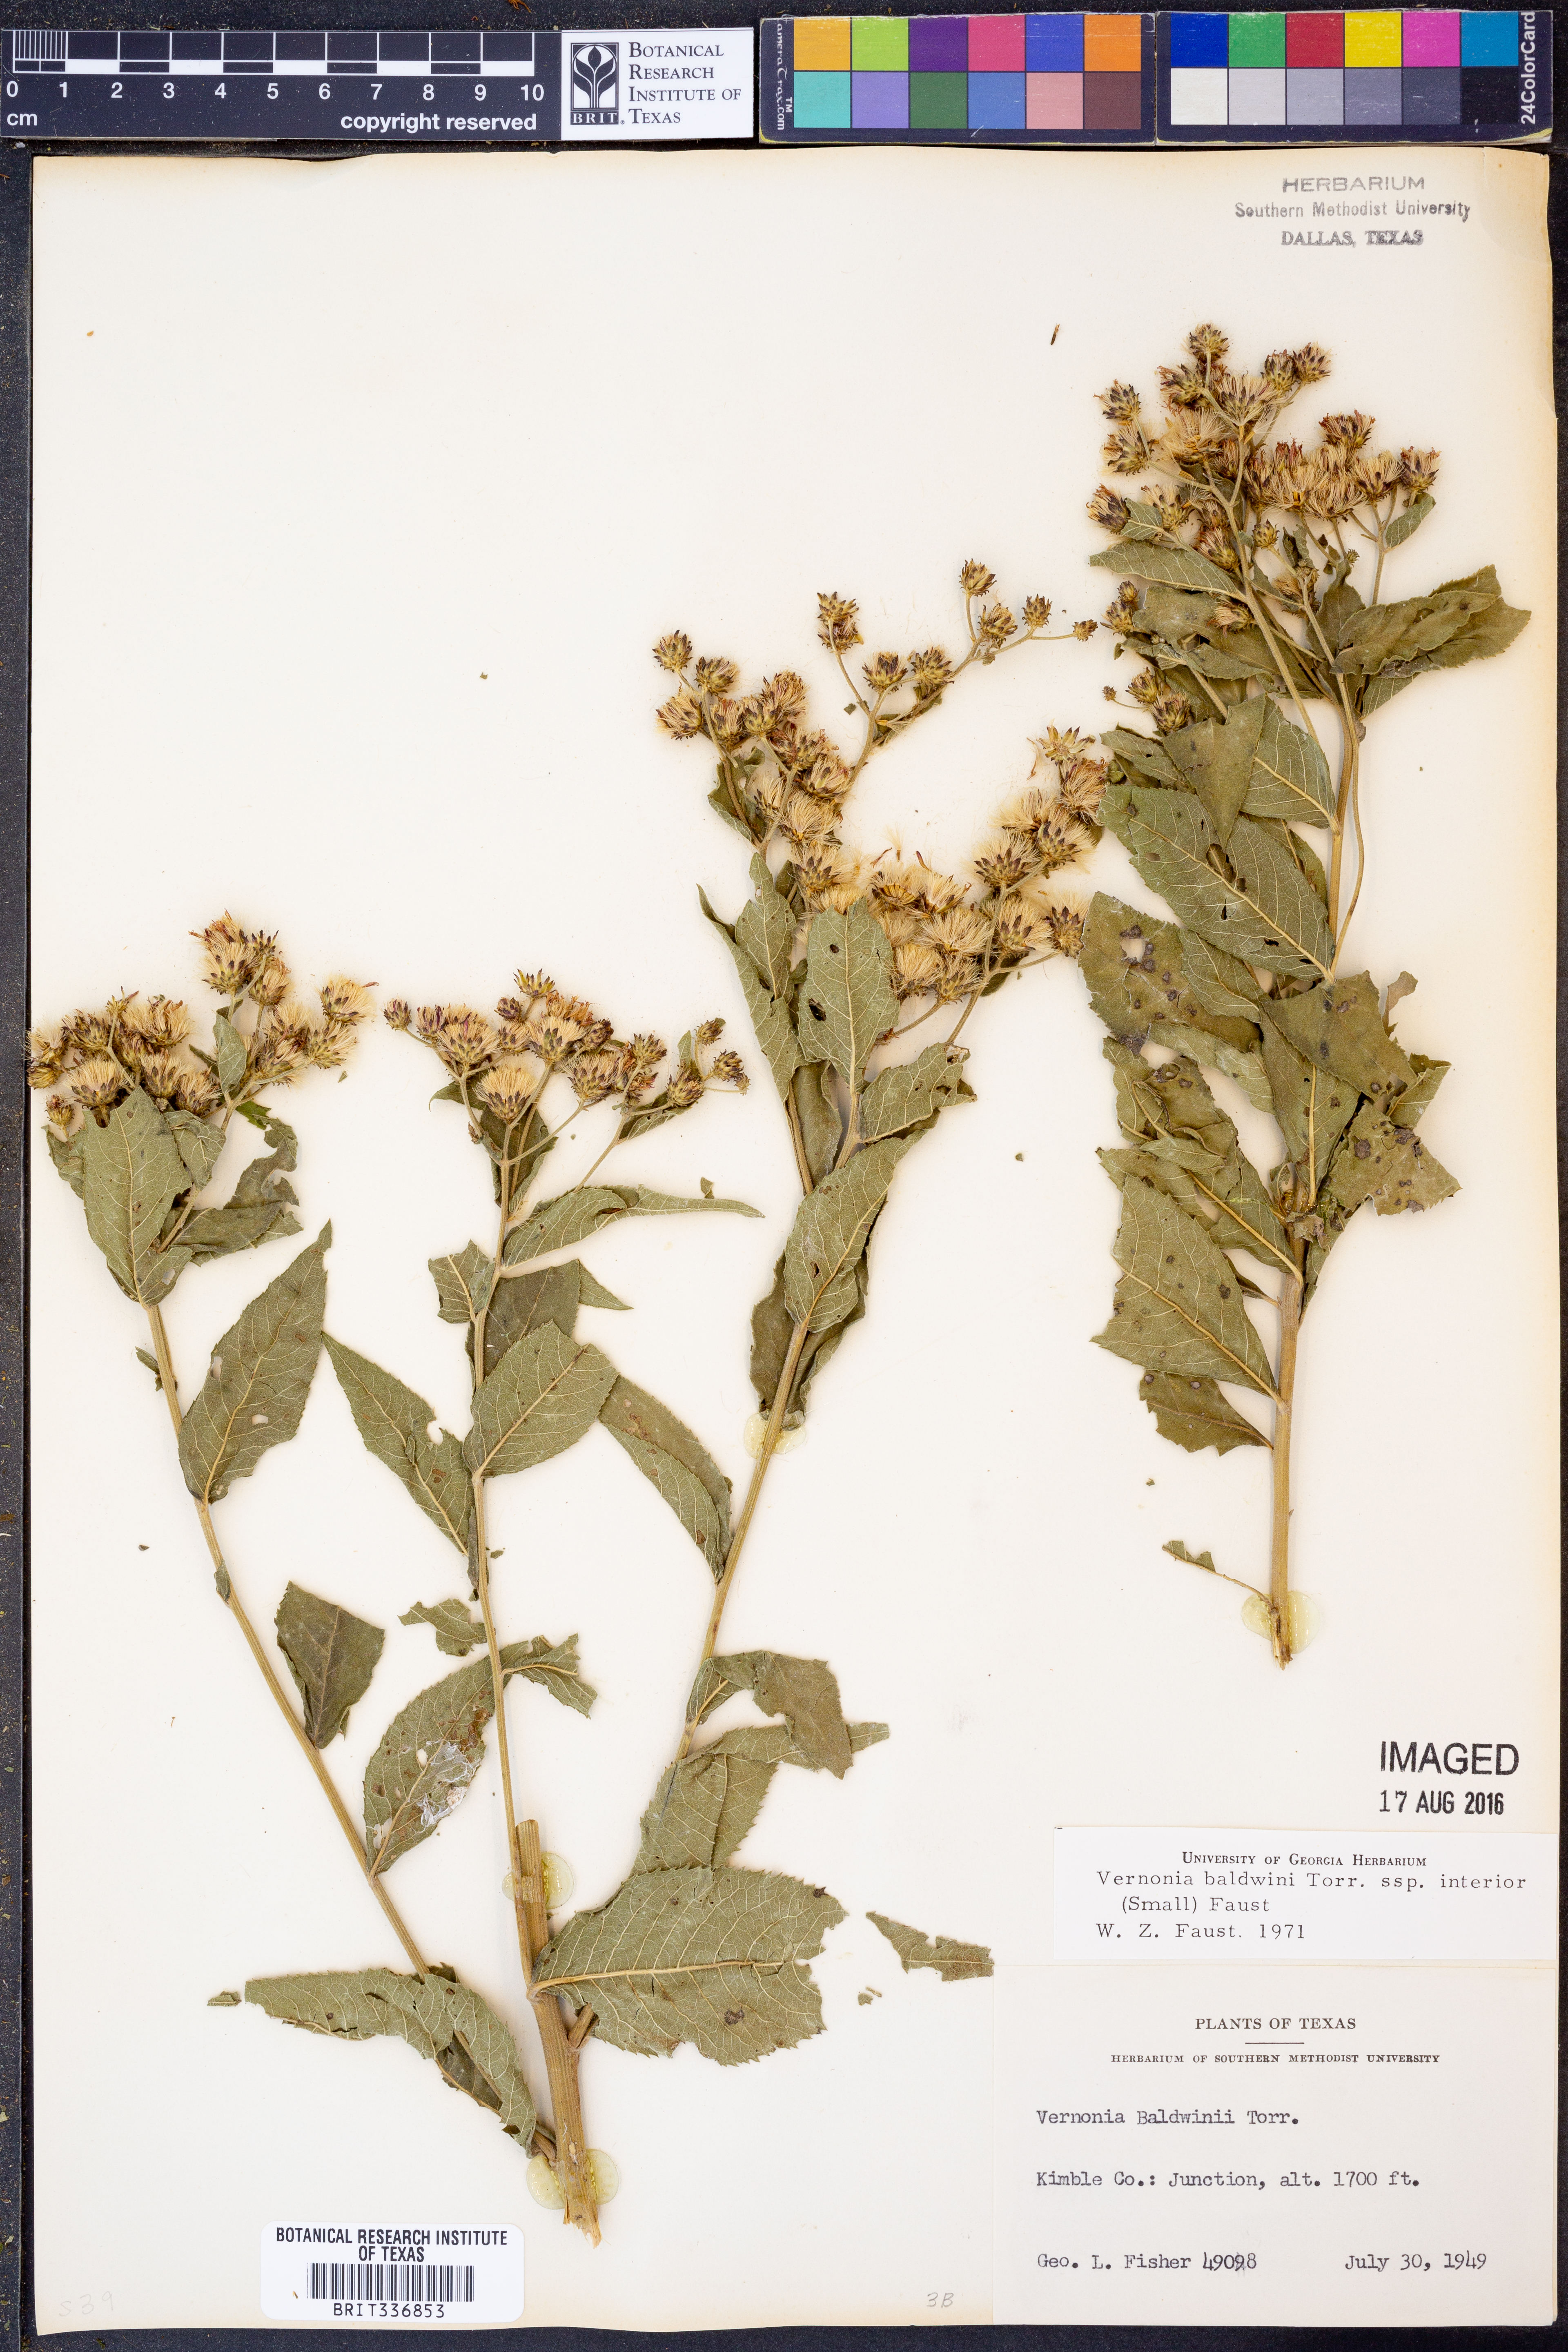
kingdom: Plantae
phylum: Tracheophyta
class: Magnoliopsida
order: Asterales
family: Asteraceae
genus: Vernonia
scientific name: Vernonia baldwinii
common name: Western ironweed
